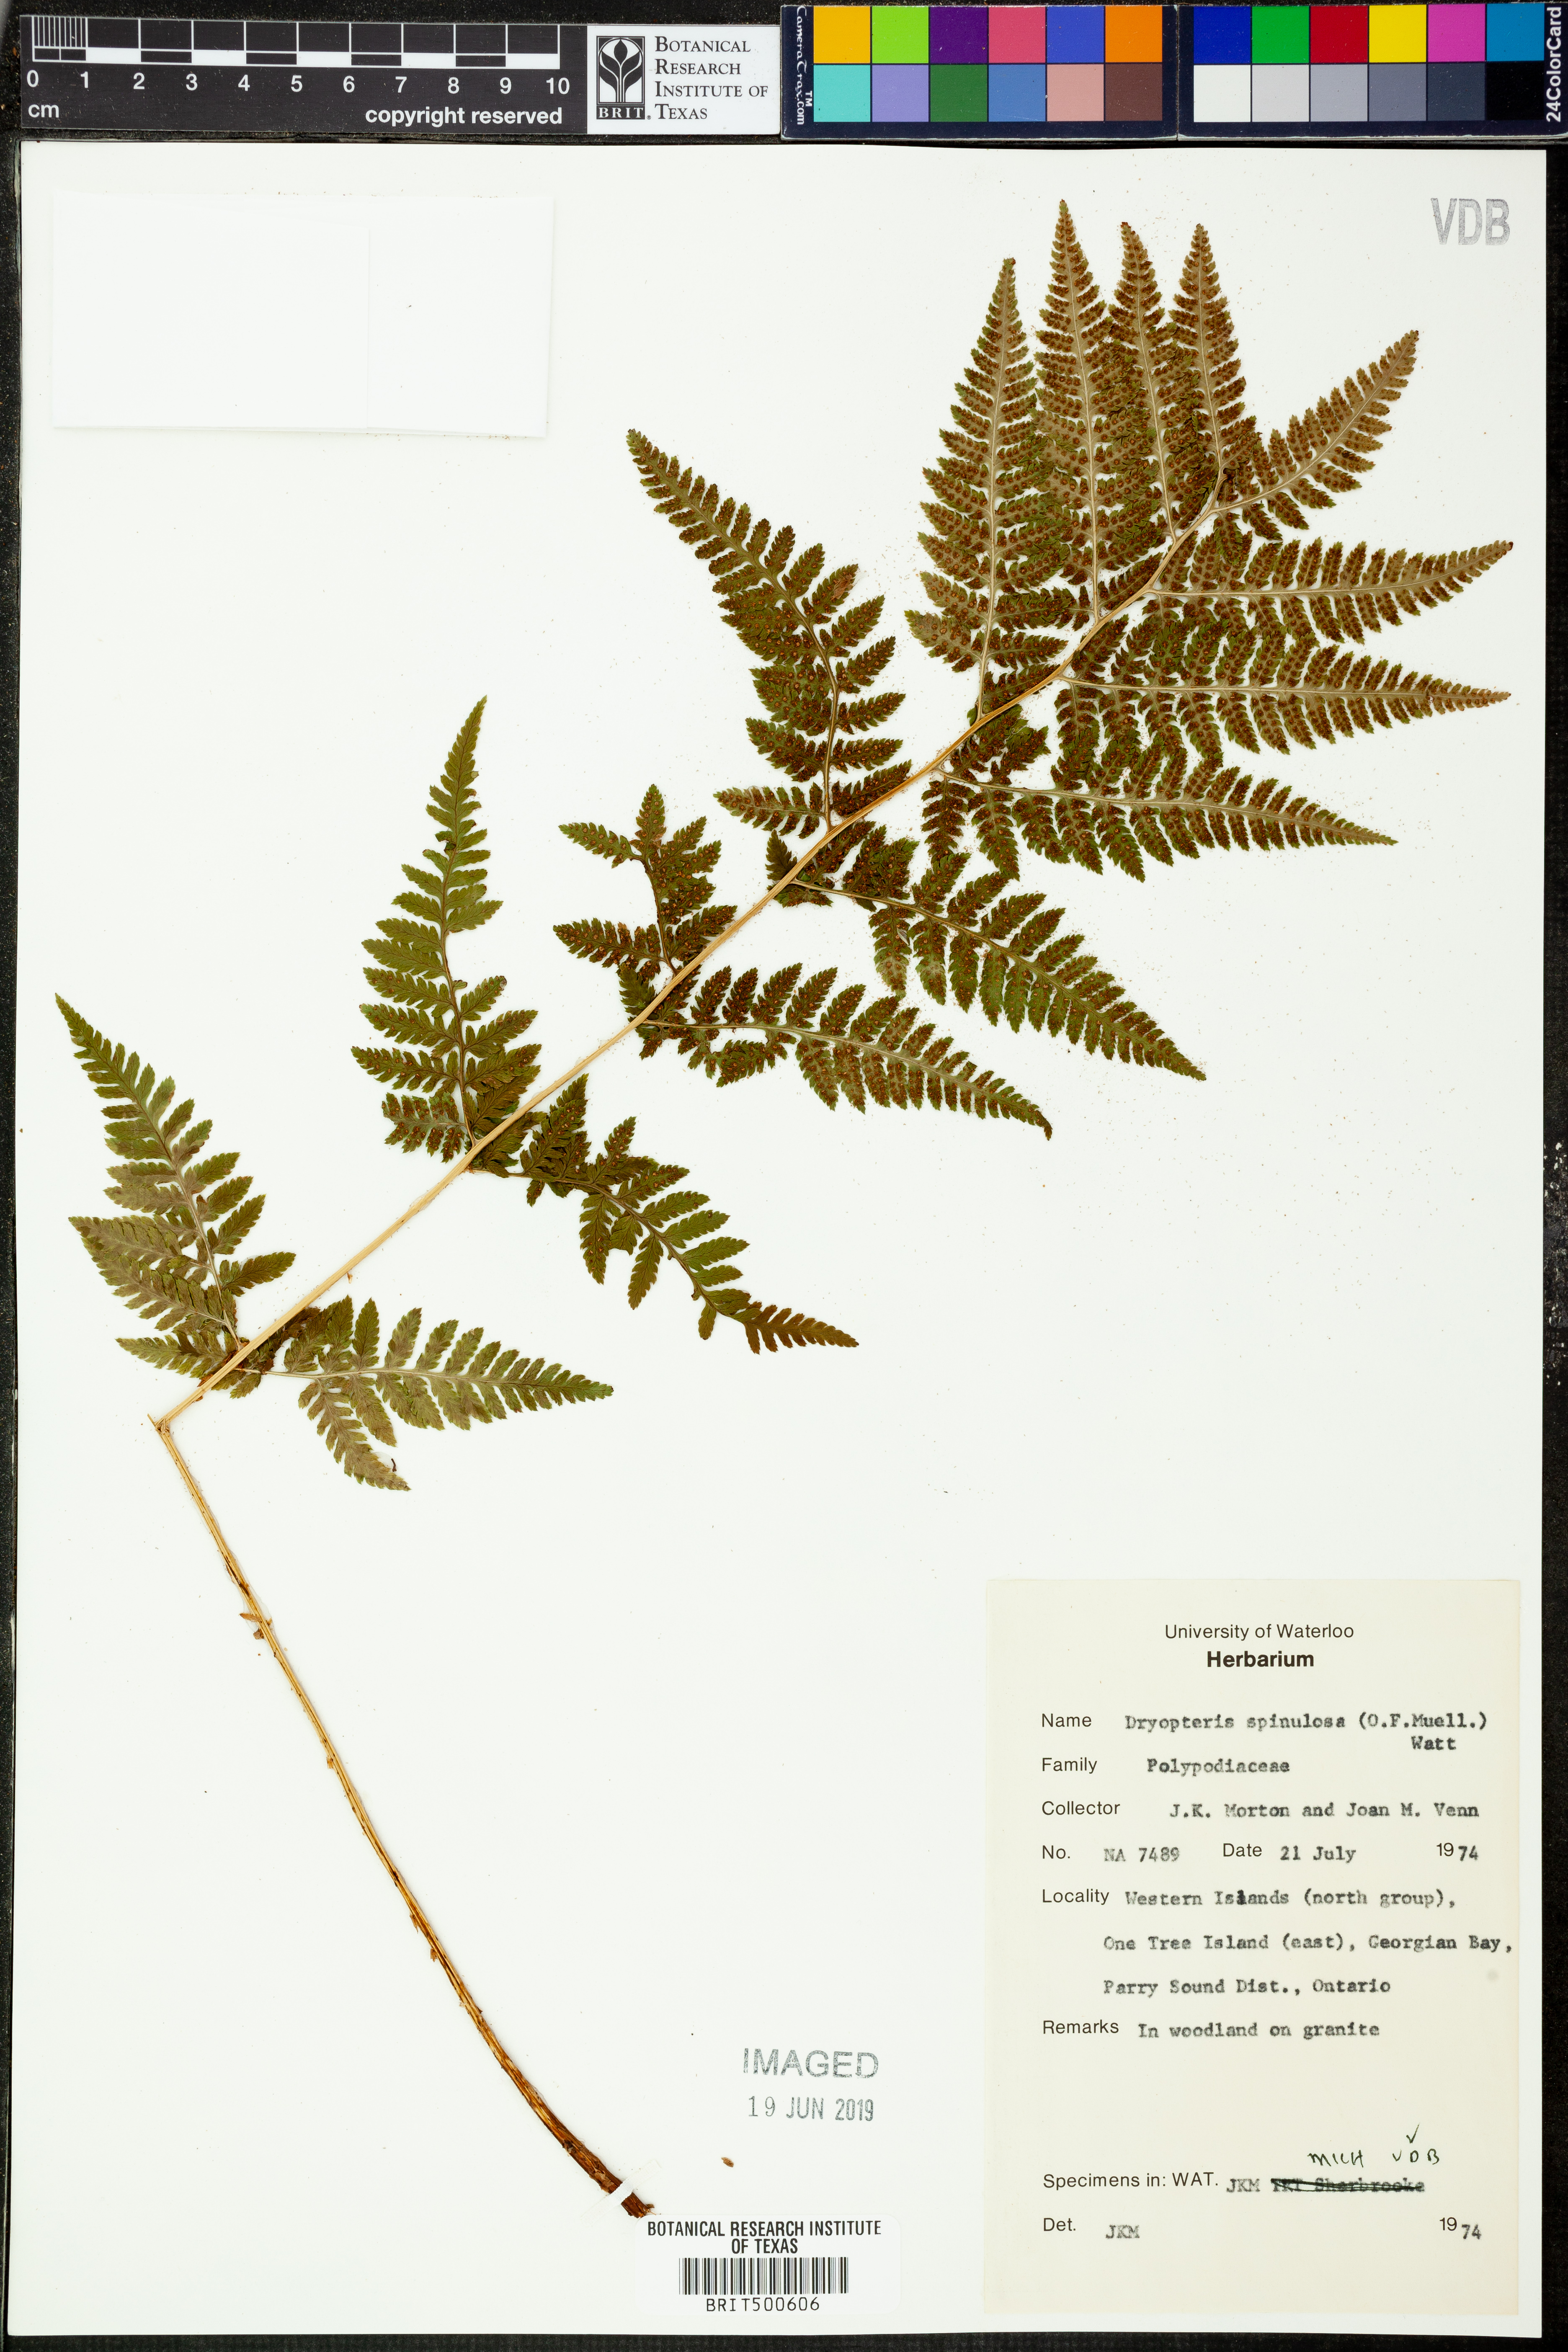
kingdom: Plantae
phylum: Tracheophyta
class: Polypodiopsida
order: Polypodiales
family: Dryopteridaceae
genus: Dryopteris
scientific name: Dryopteris carthusiana
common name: Narrow buckler-fern
